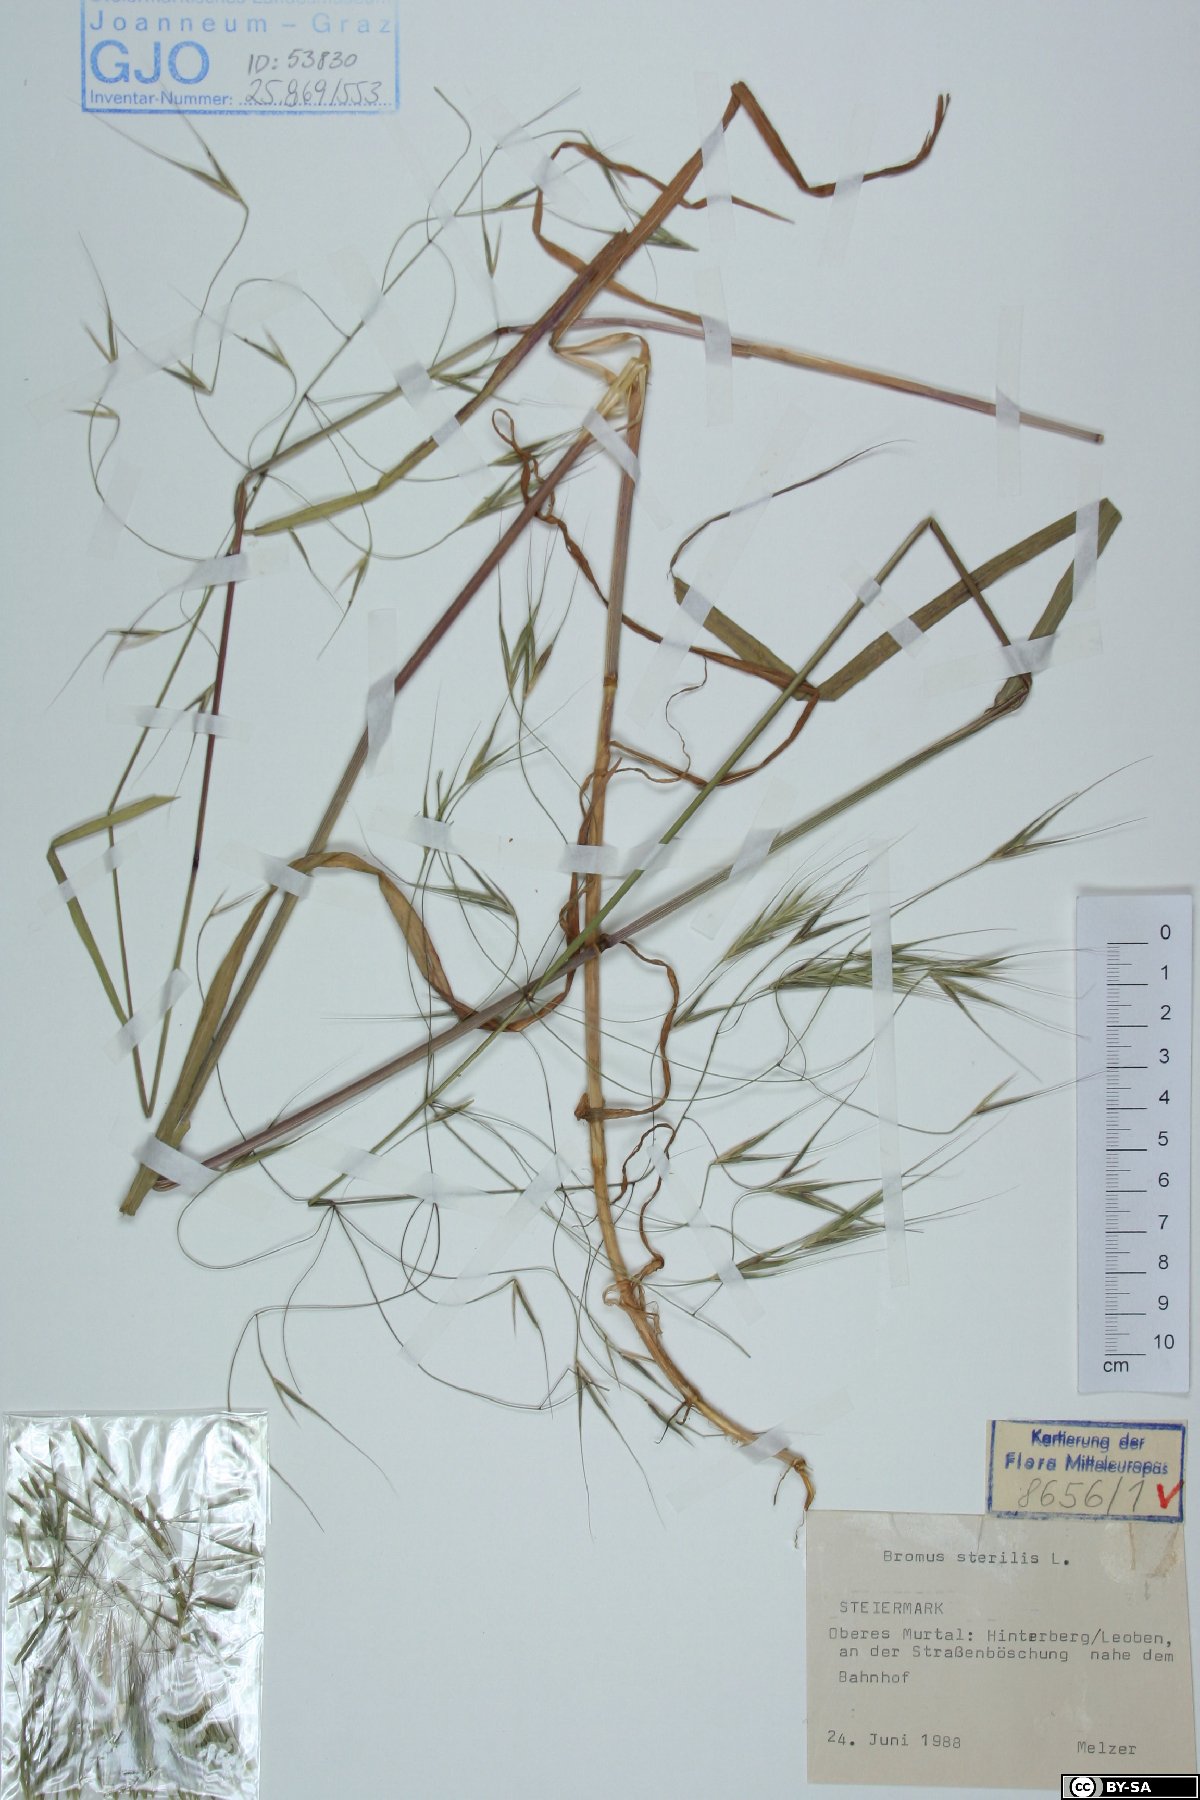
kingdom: Plantae
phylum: Tracheophyta
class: Liliopsida
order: Poales
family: Poaceae
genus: Bromus
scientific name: Bromus sterilis
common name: Poverty brome
